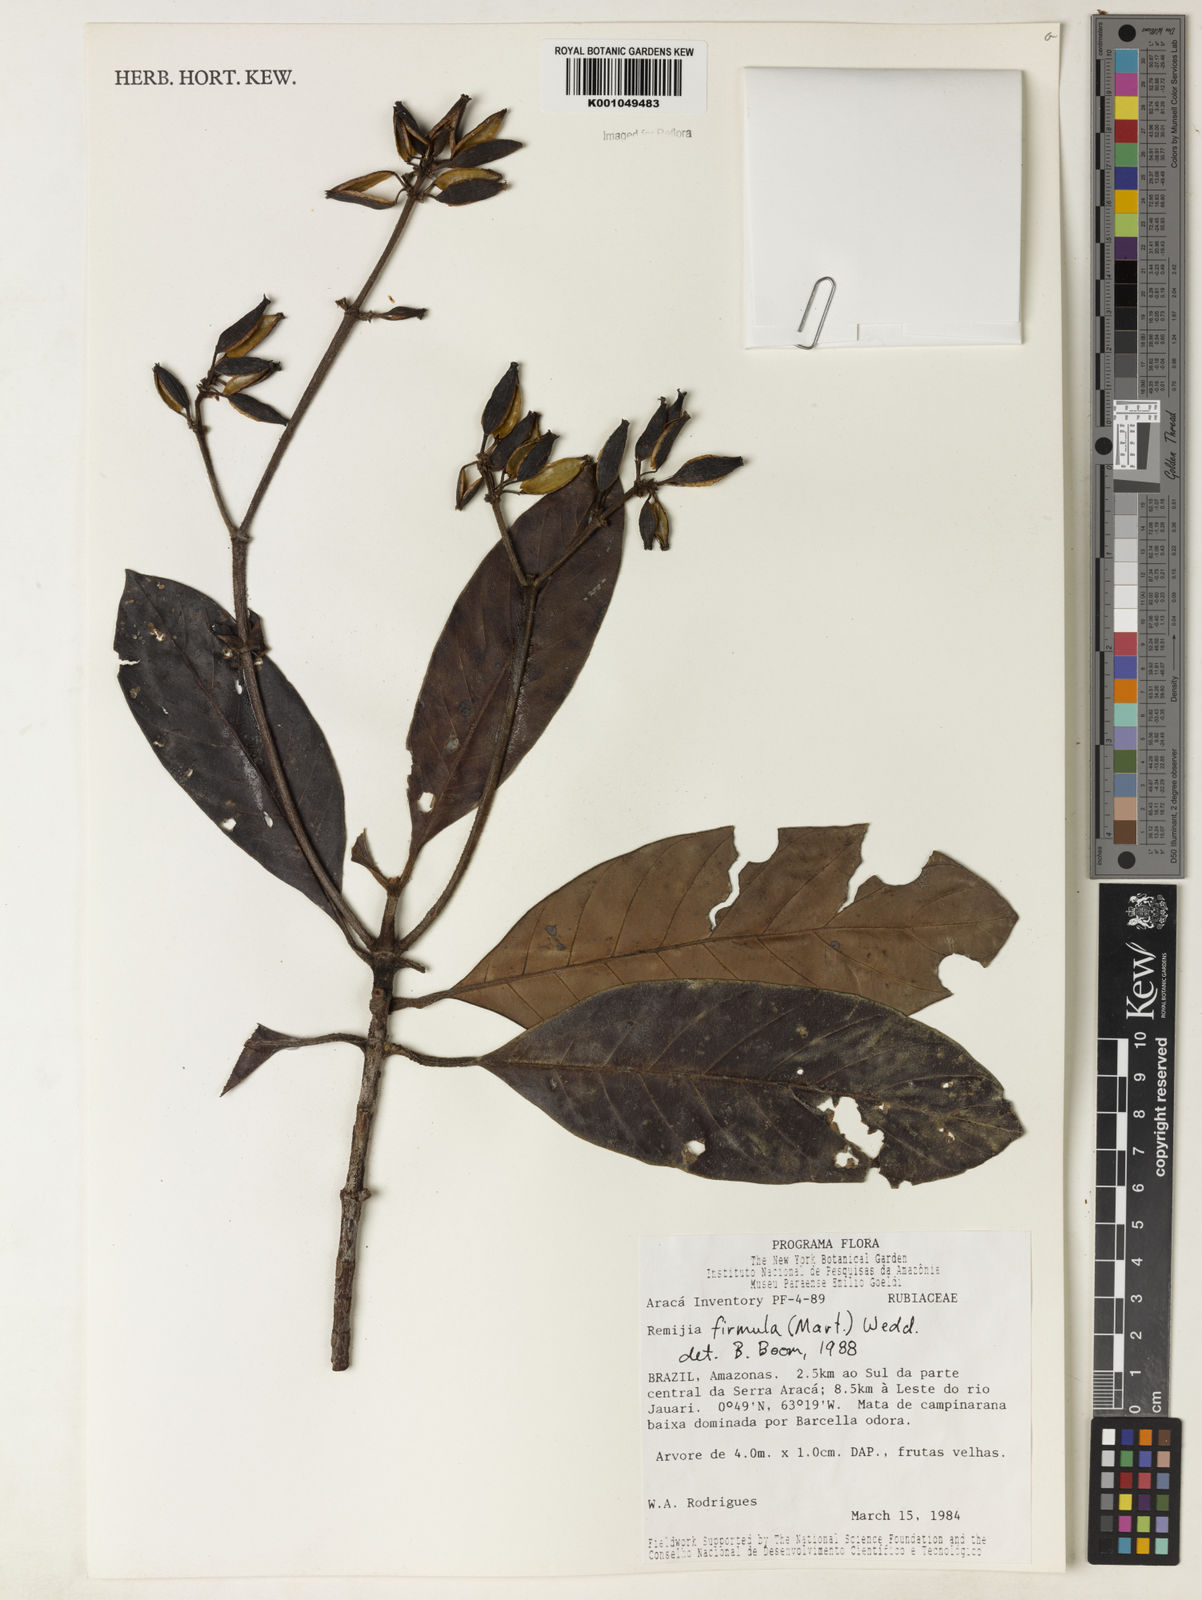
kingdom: Plantae
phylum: Tracheophyta
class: Magnoliopsida
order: Gentianales
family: Rubiaceae
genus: Remijia
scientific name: Remijia firmula
